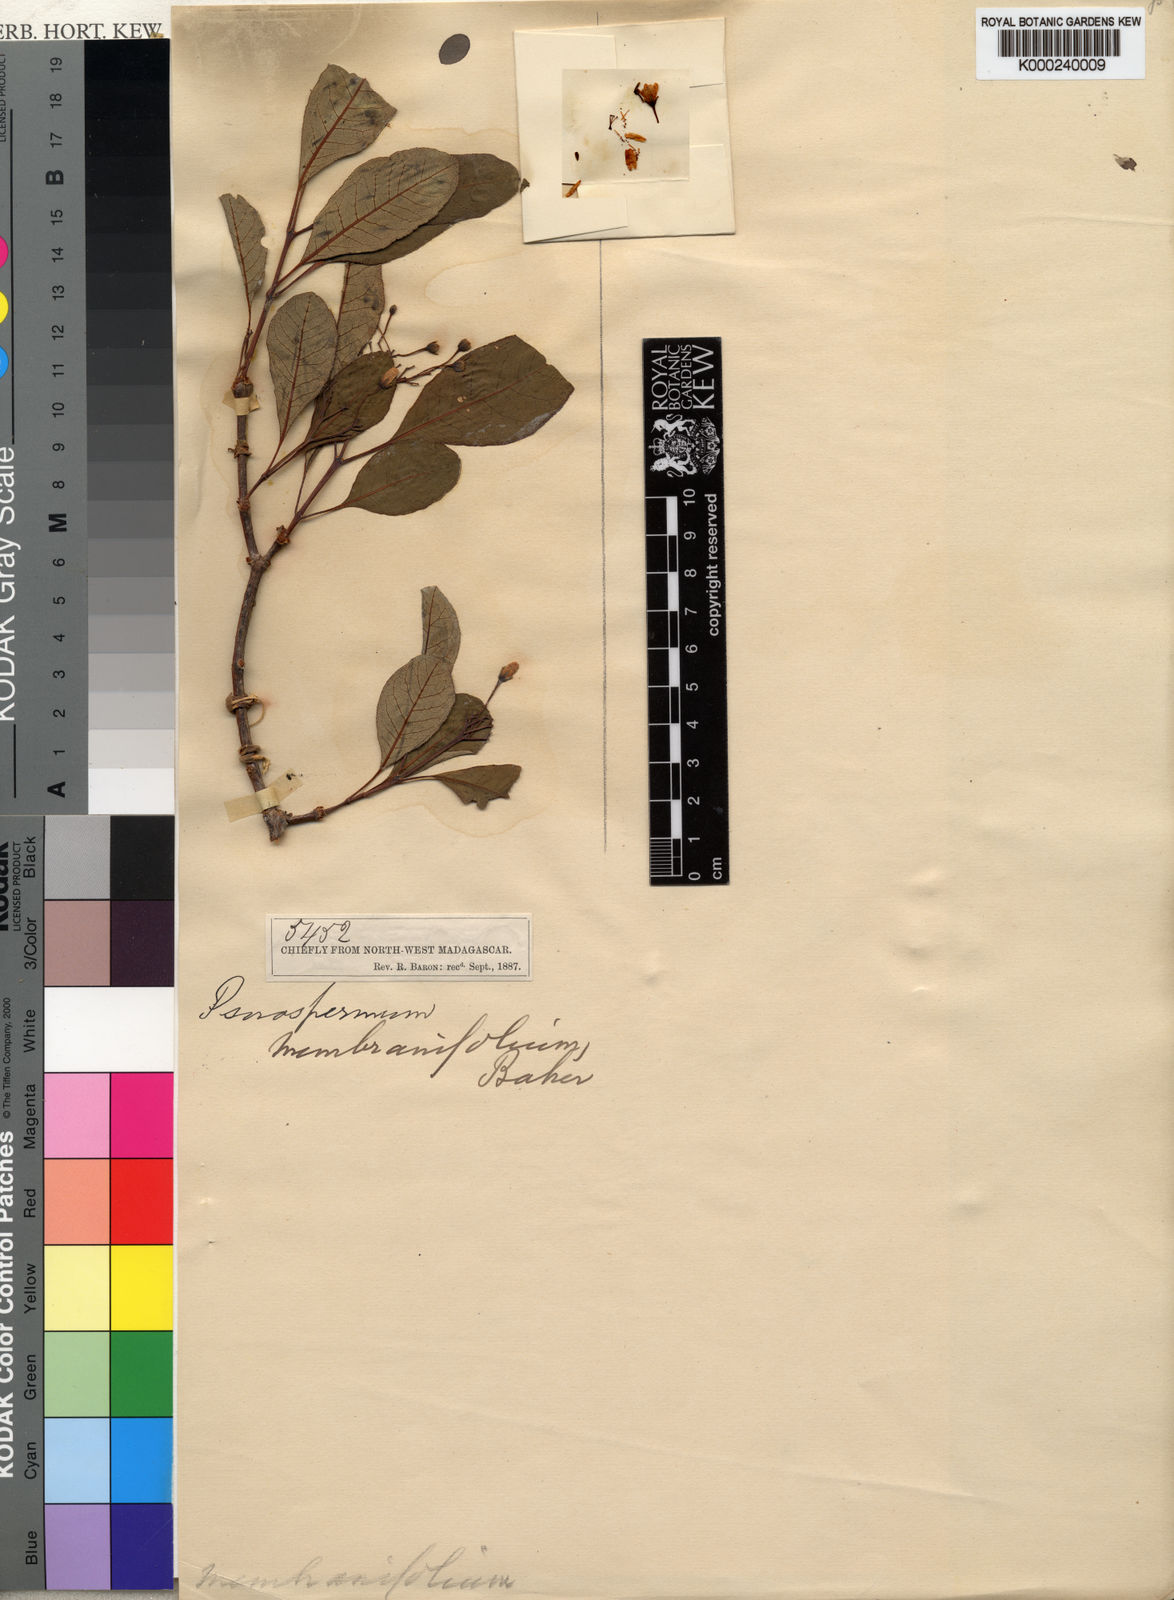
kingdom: Plantae
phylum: Tracheophyta
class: Magnoliopsida
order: Malpighiales
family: Hypericaceae
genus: Psorospermum
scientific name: Psorospermum membranifolium
